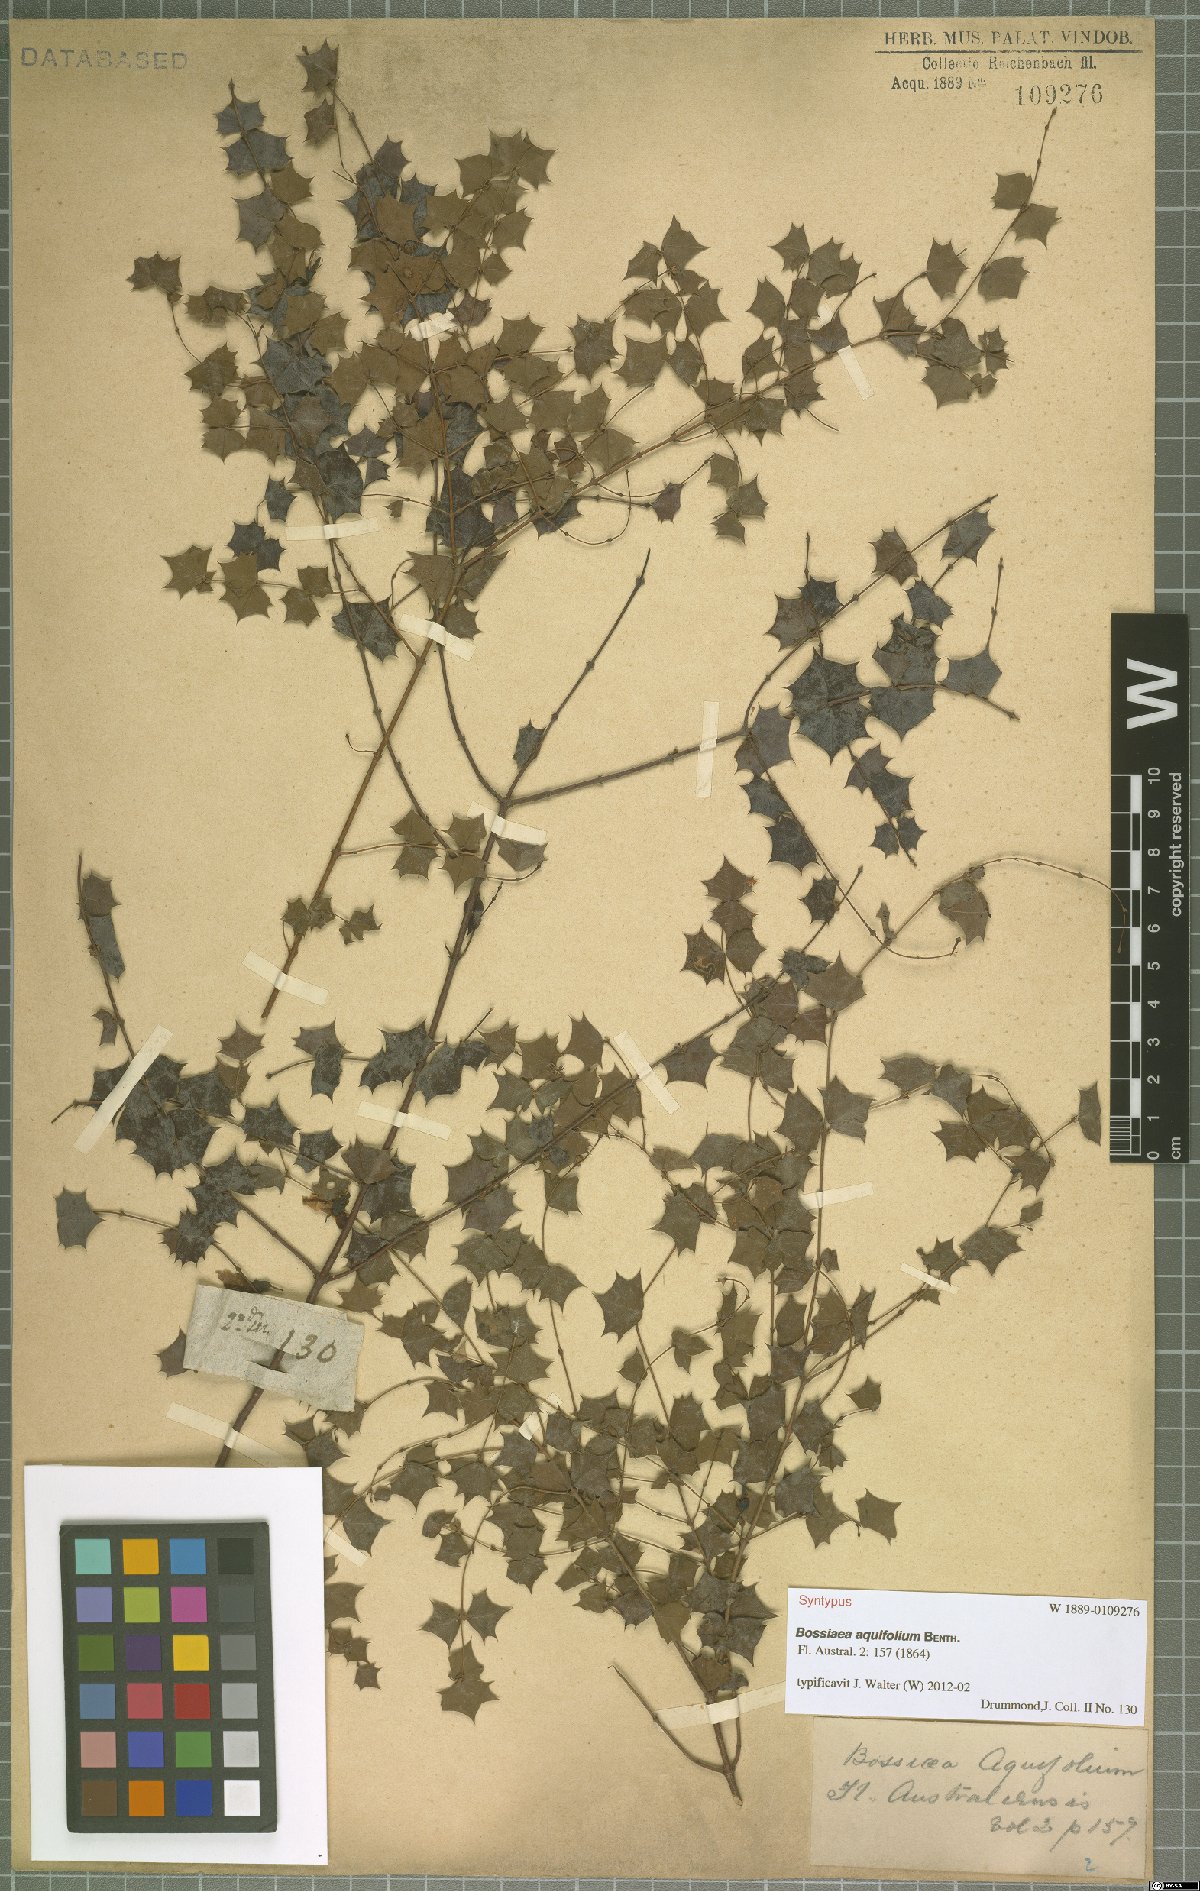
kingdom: Plantae
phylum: Tracheophyta
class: Magnoliopsida
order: Fabales
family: Fabaceae
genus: Bossiaea
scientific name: Bossiaea aquifolium
